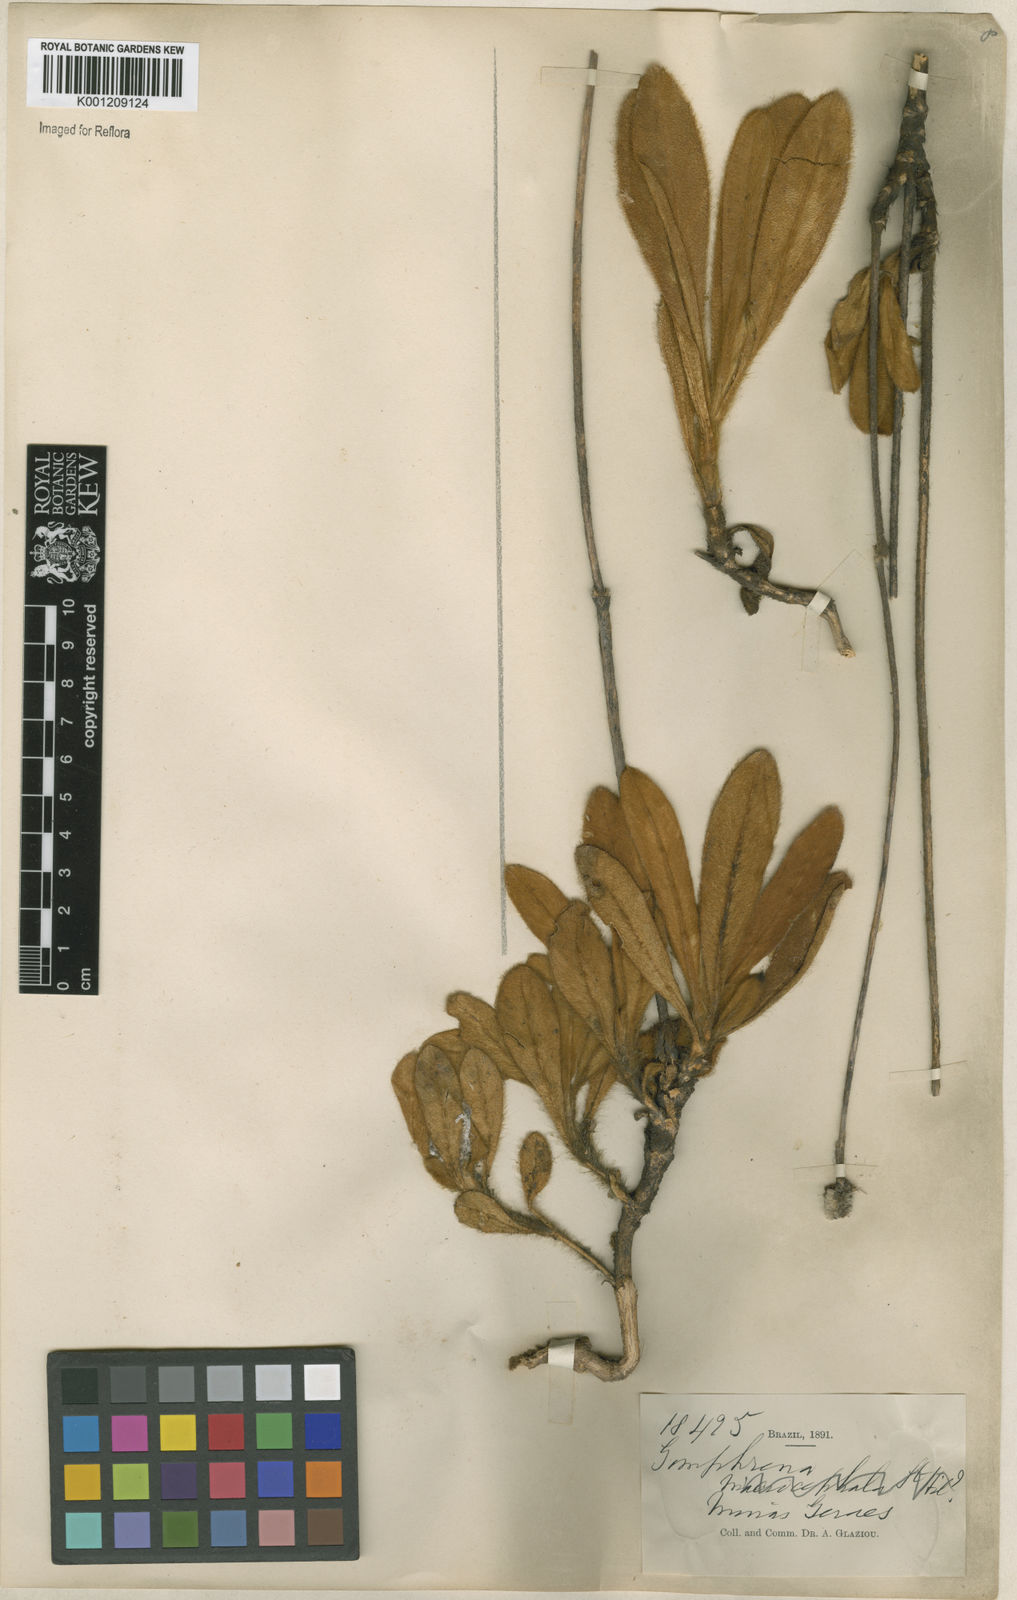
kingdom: Plantae
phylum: Tracheophyta
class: Magnoliopsida
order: Caryophyllales
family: Amaranthaceae
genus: Gomphrena
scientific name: Gomphrena scapigera
